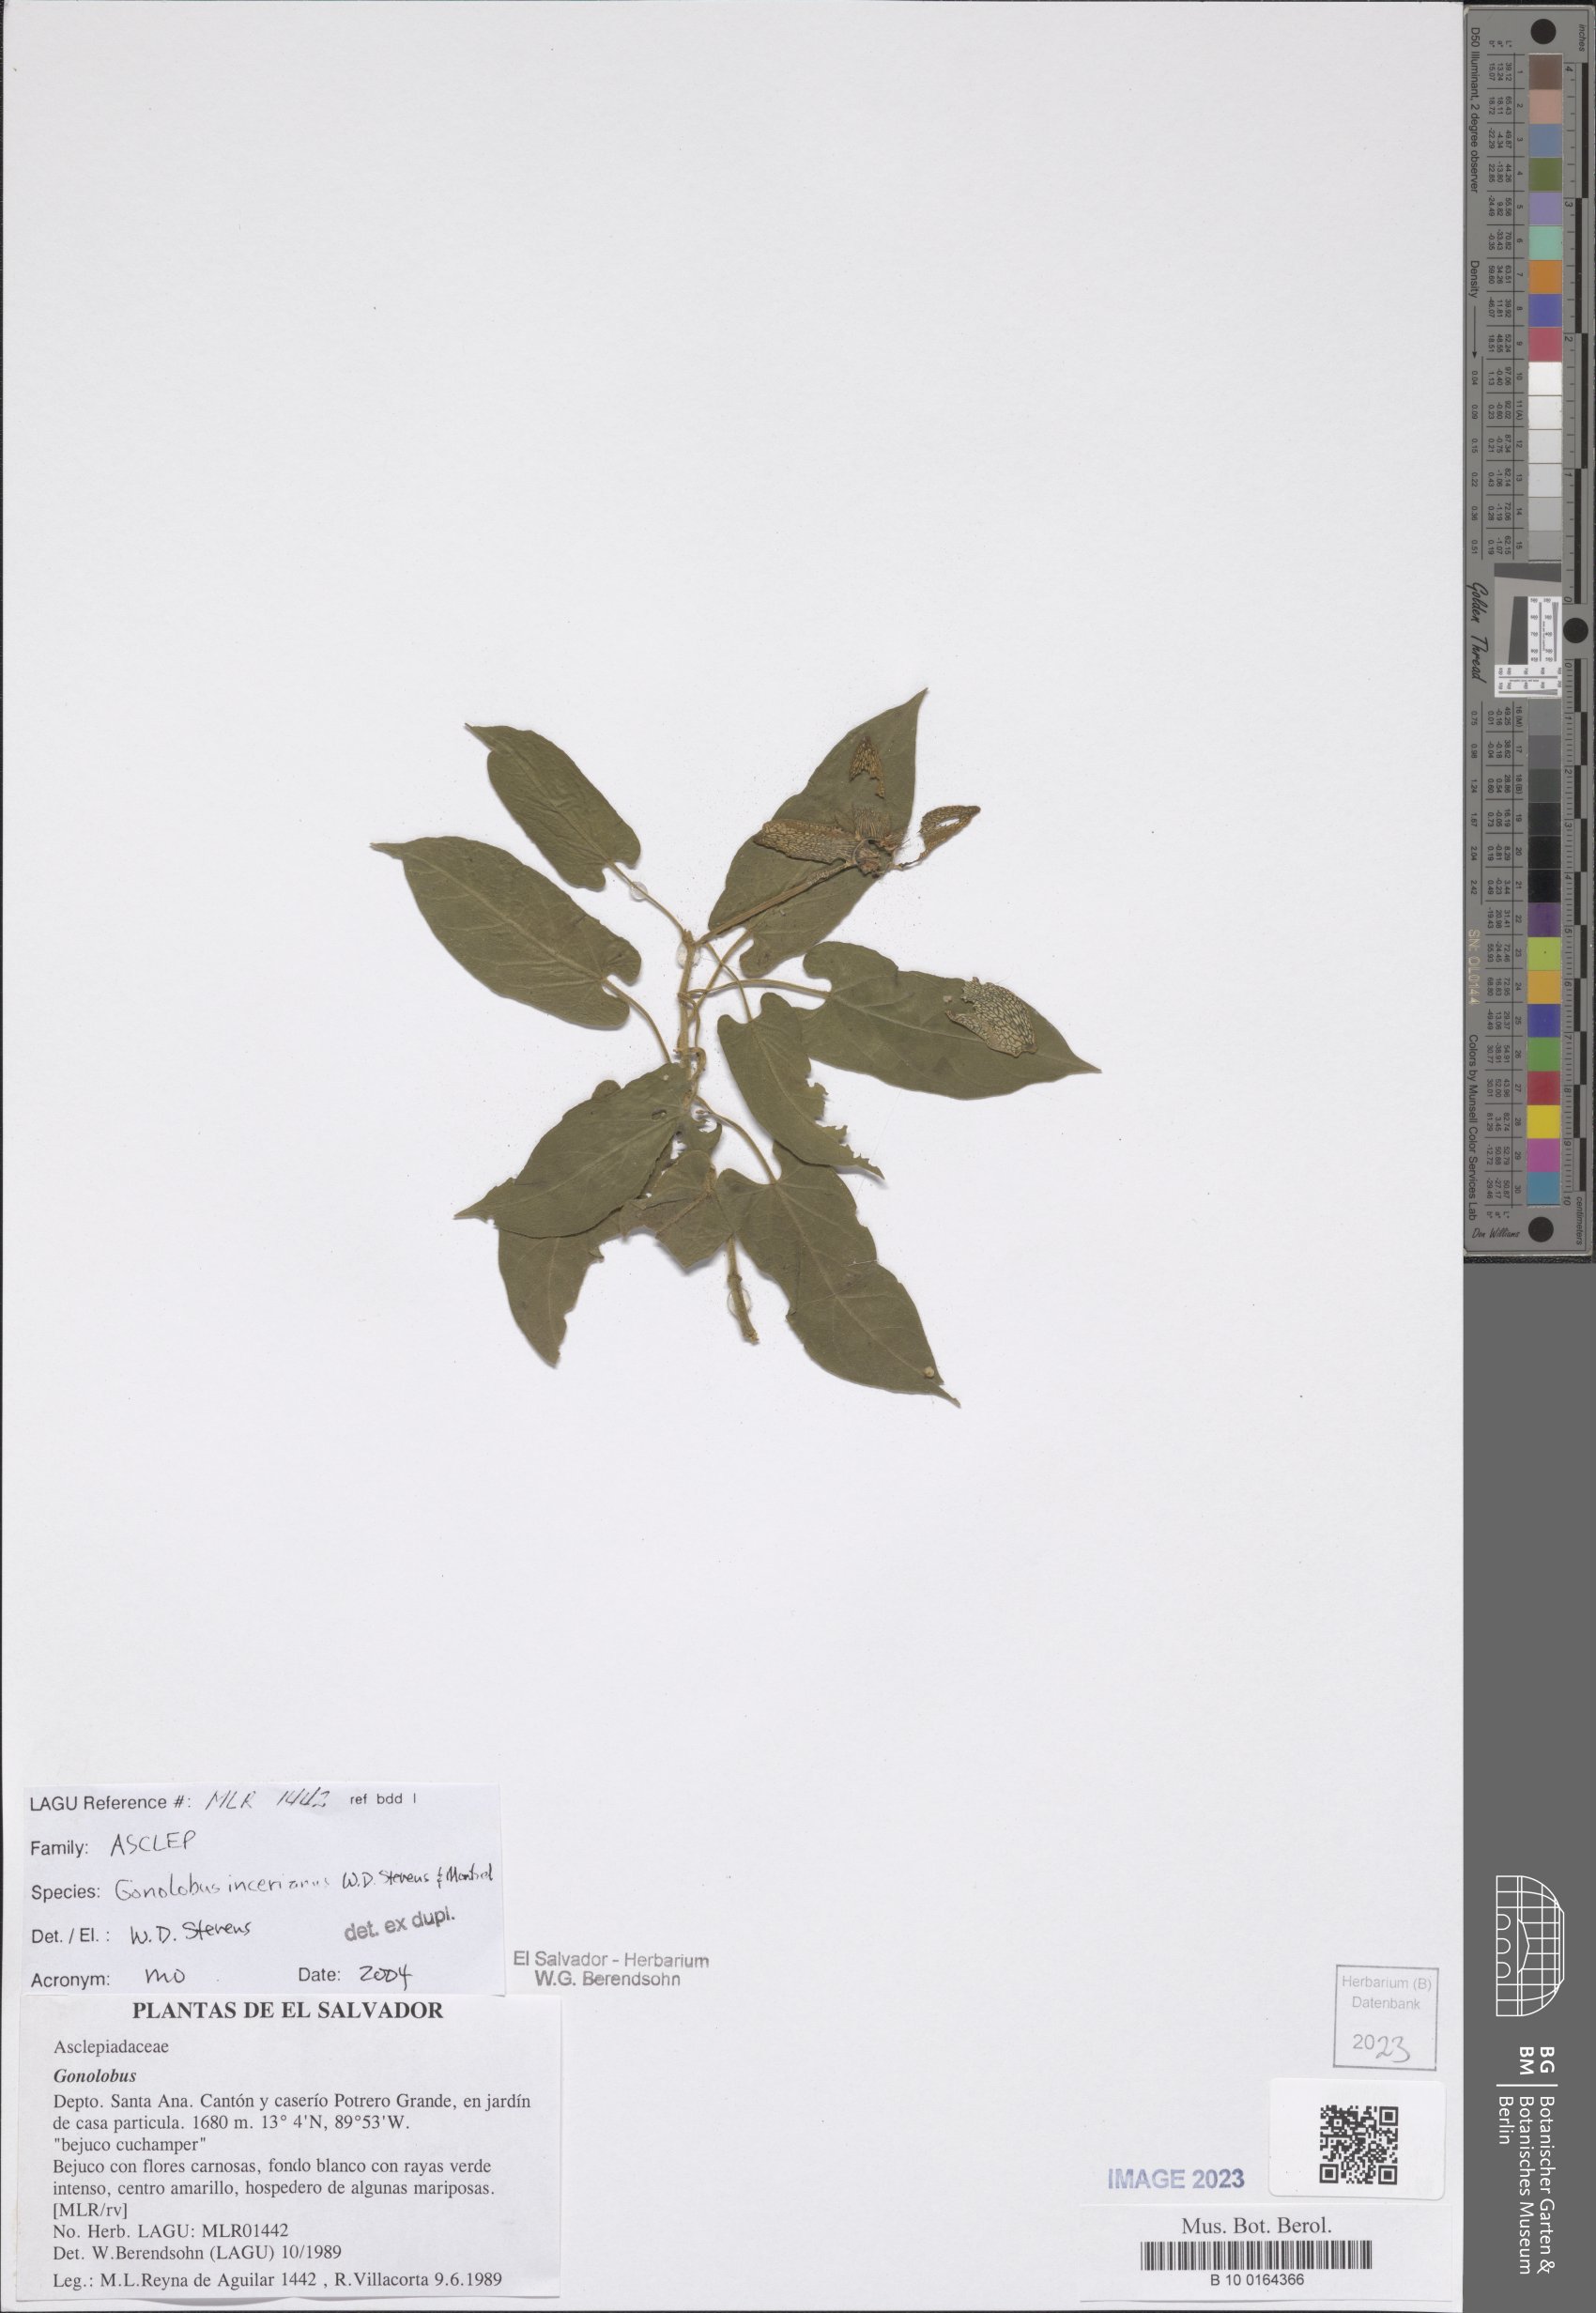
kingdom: Plantae
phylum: Tracheophyta
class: Magnoliopsida
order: Gentianales
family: Apocynaceae
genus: Gonolobus
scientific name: Gonolobus incerianus
